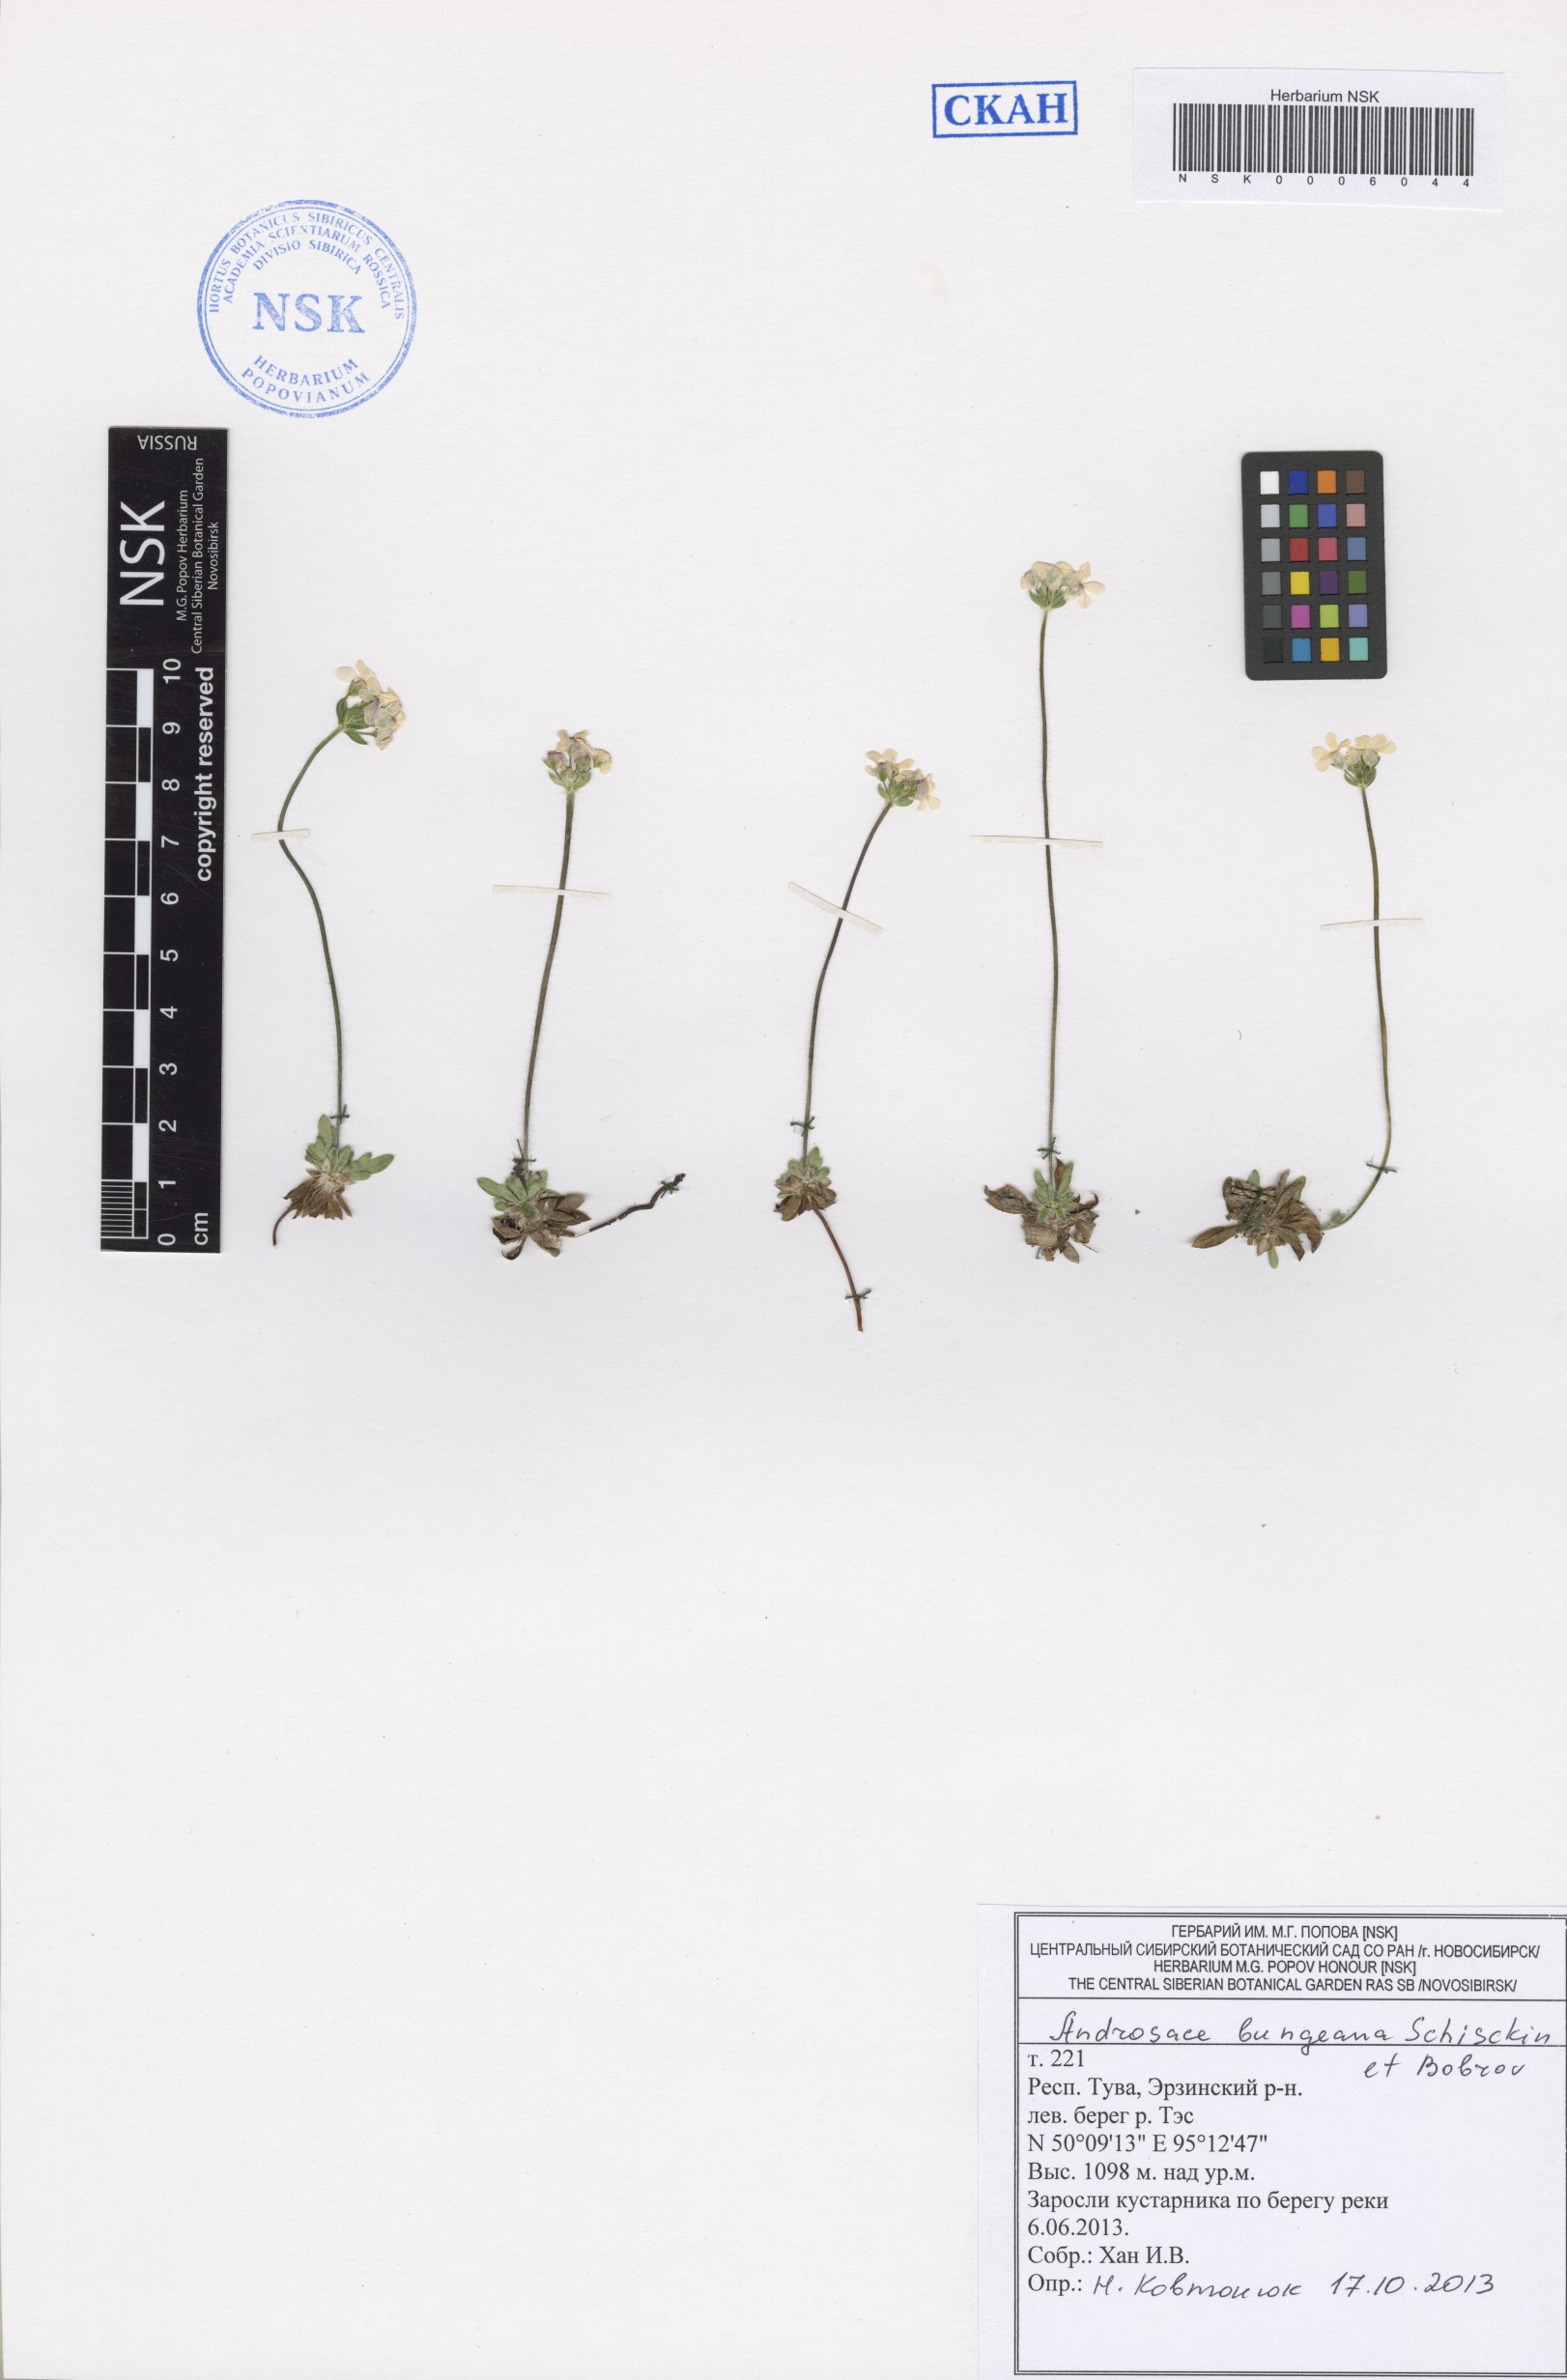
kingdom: Plantae
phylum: Tracheophyta
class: Magnoliopsida
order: Ericales
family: Primulaceae
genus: Androsace
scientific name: Androsace bungeana
